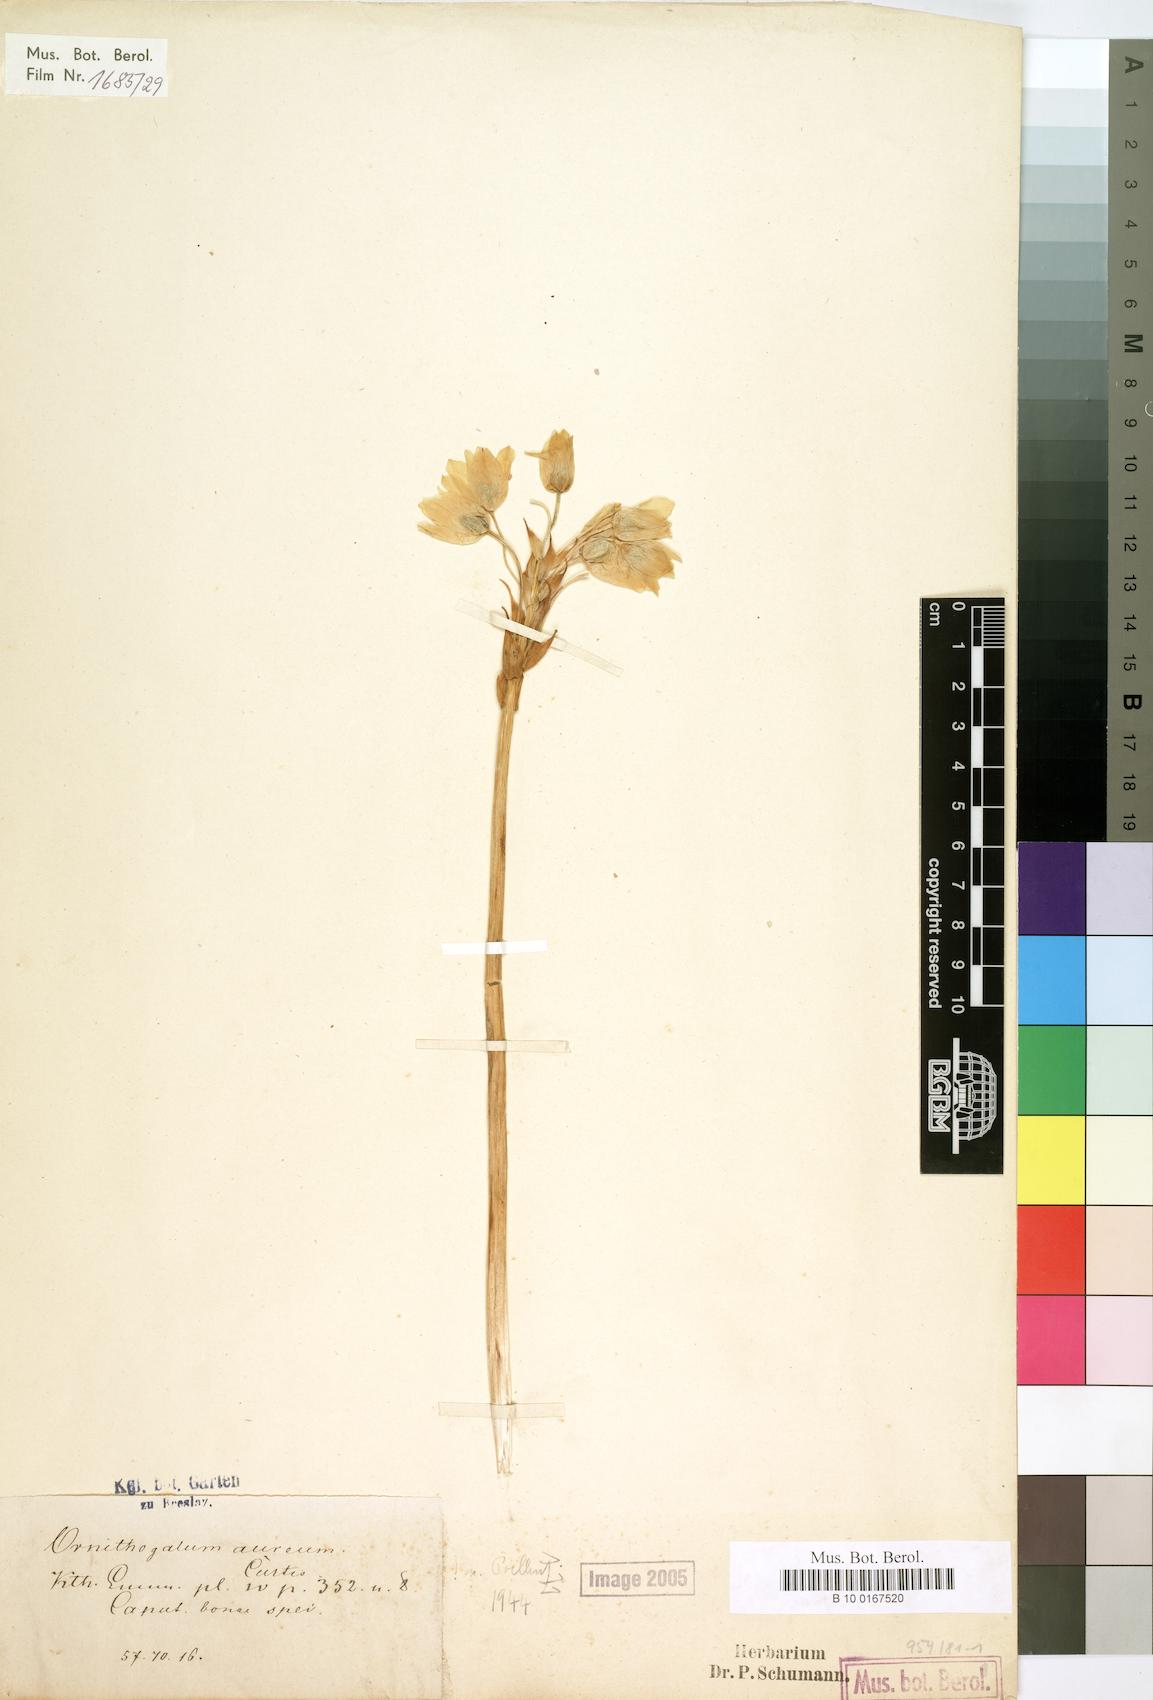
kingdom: Plantae
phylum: Tracheophyta
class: Liliopsida
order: Asparagales
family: Asparagaceae
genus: Ornithogalum
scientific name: Ornithogalum dubium
